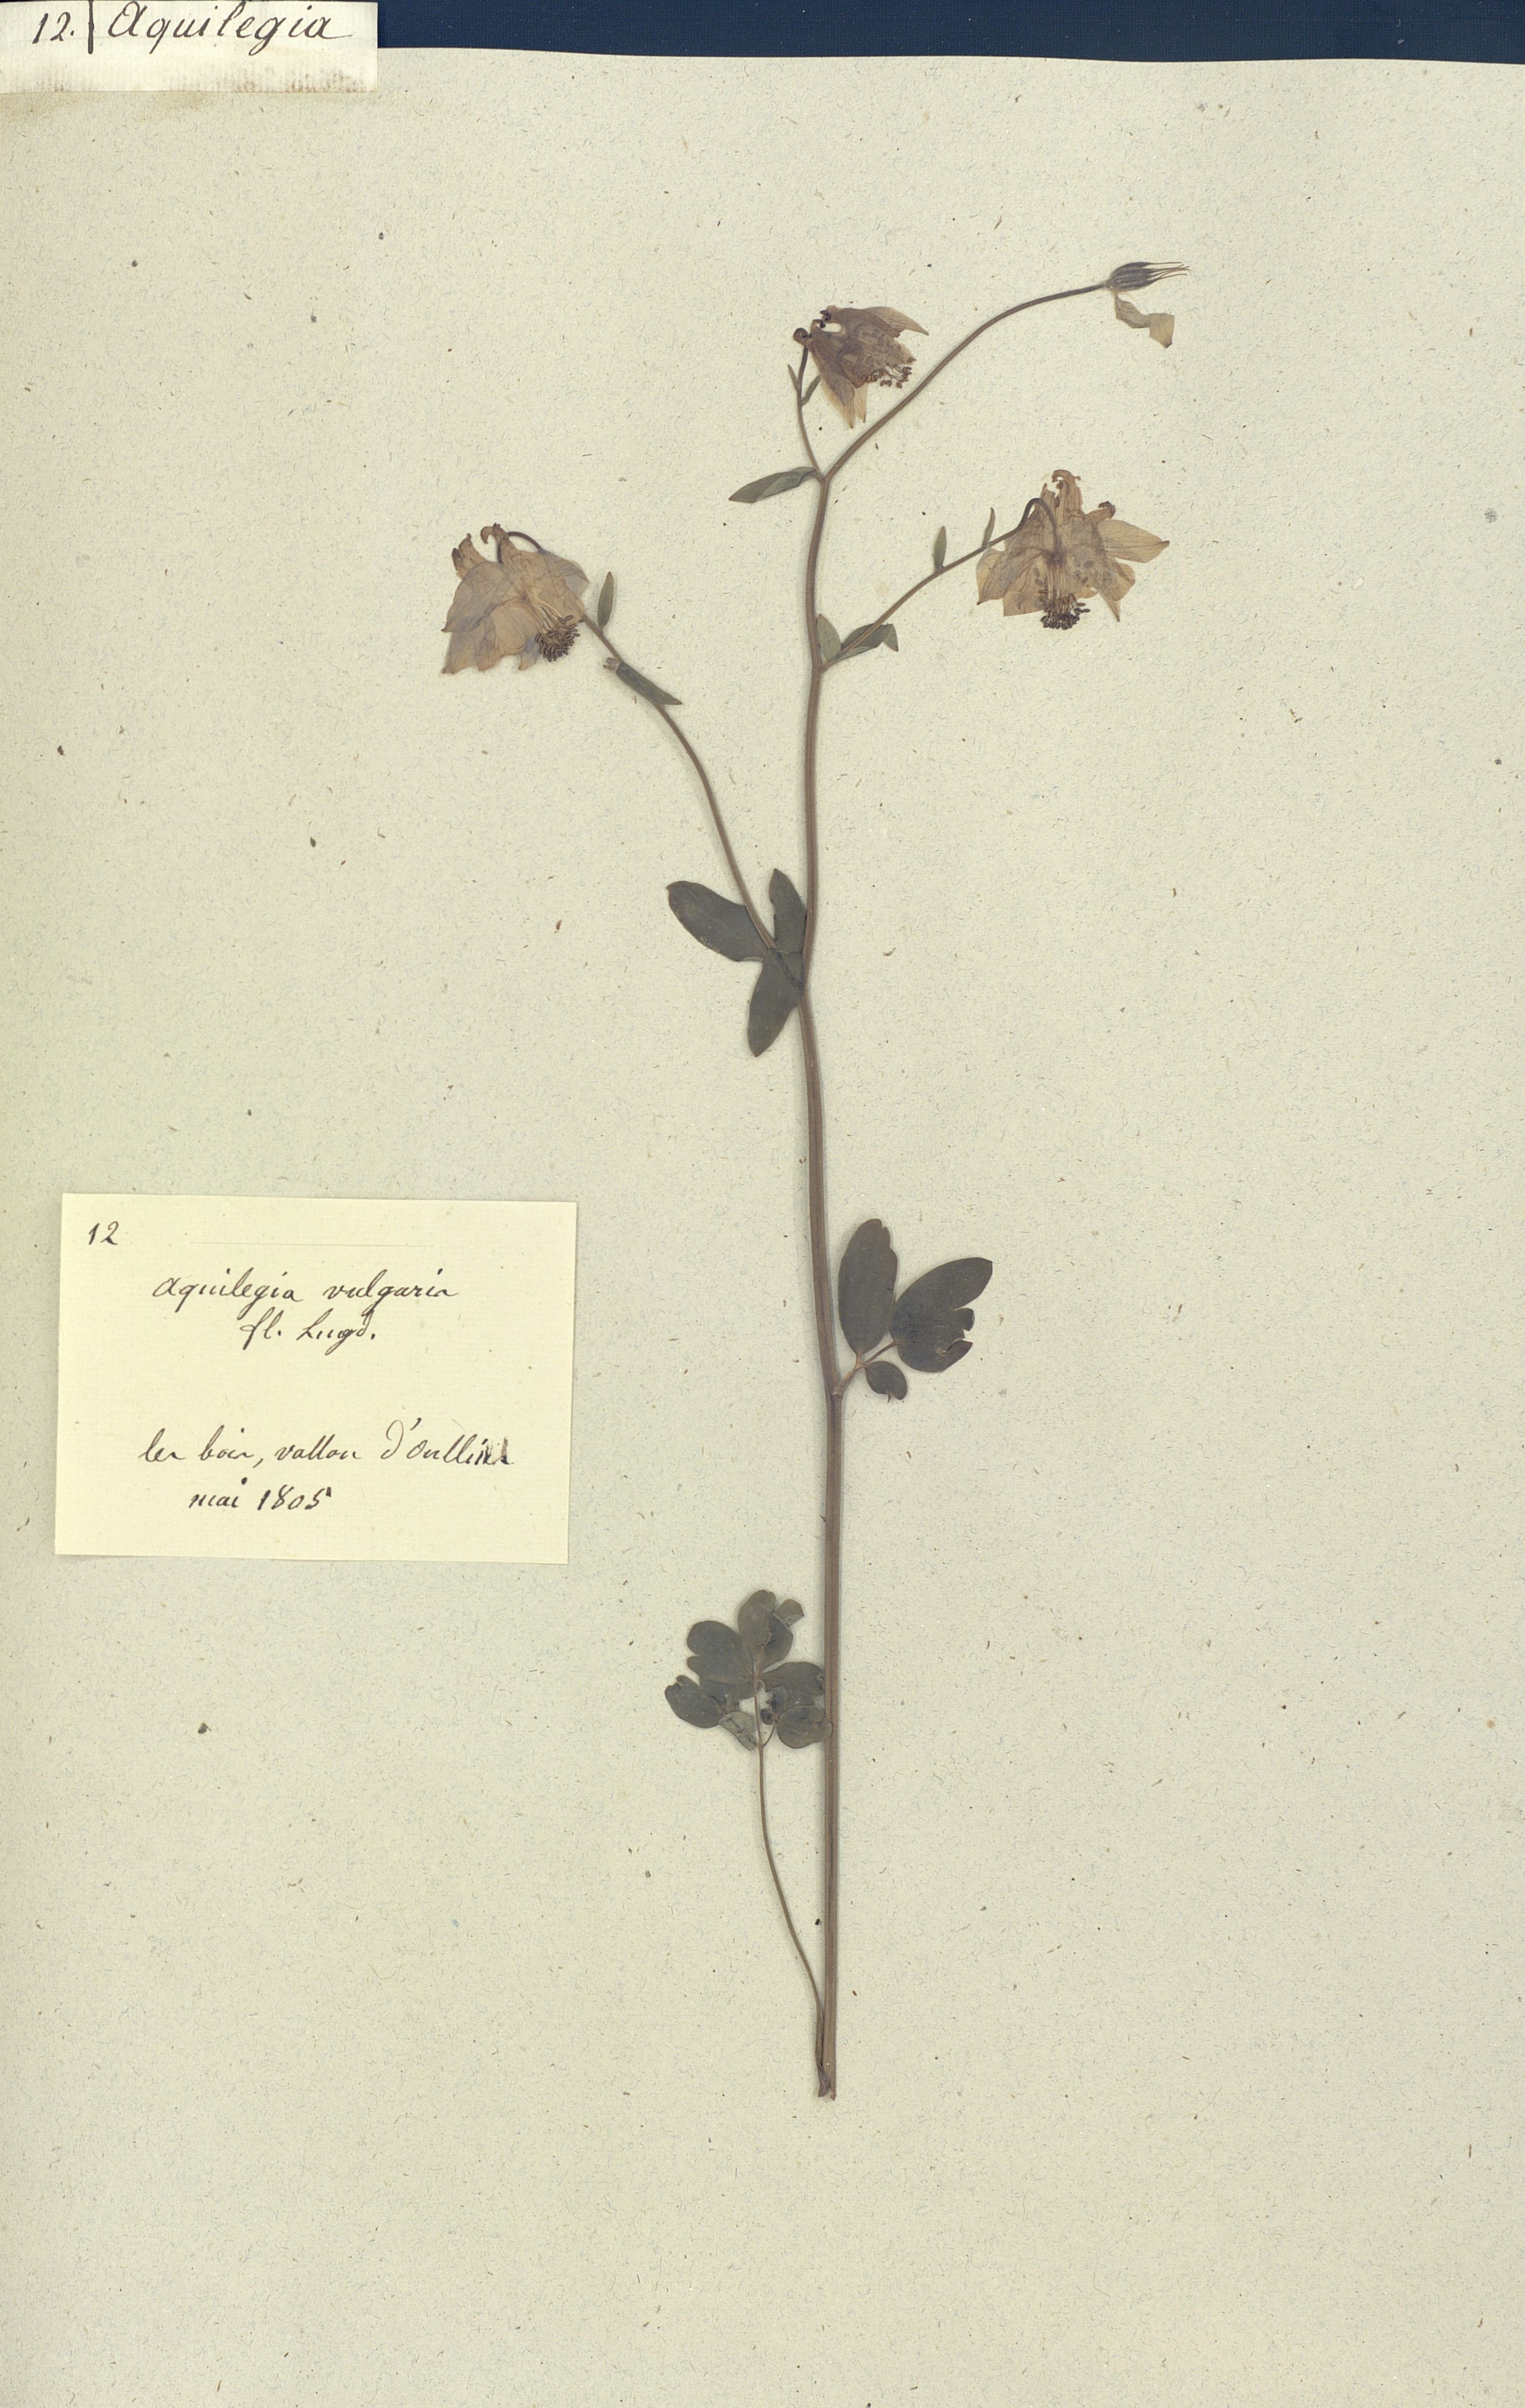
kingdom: Plantae
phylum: Tracheophyta
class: Magnoliopsida
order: Ranunculales
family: Ranunculaceae
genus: Aquilegia
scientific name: Aquilegia vulgaris
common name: Columbine
